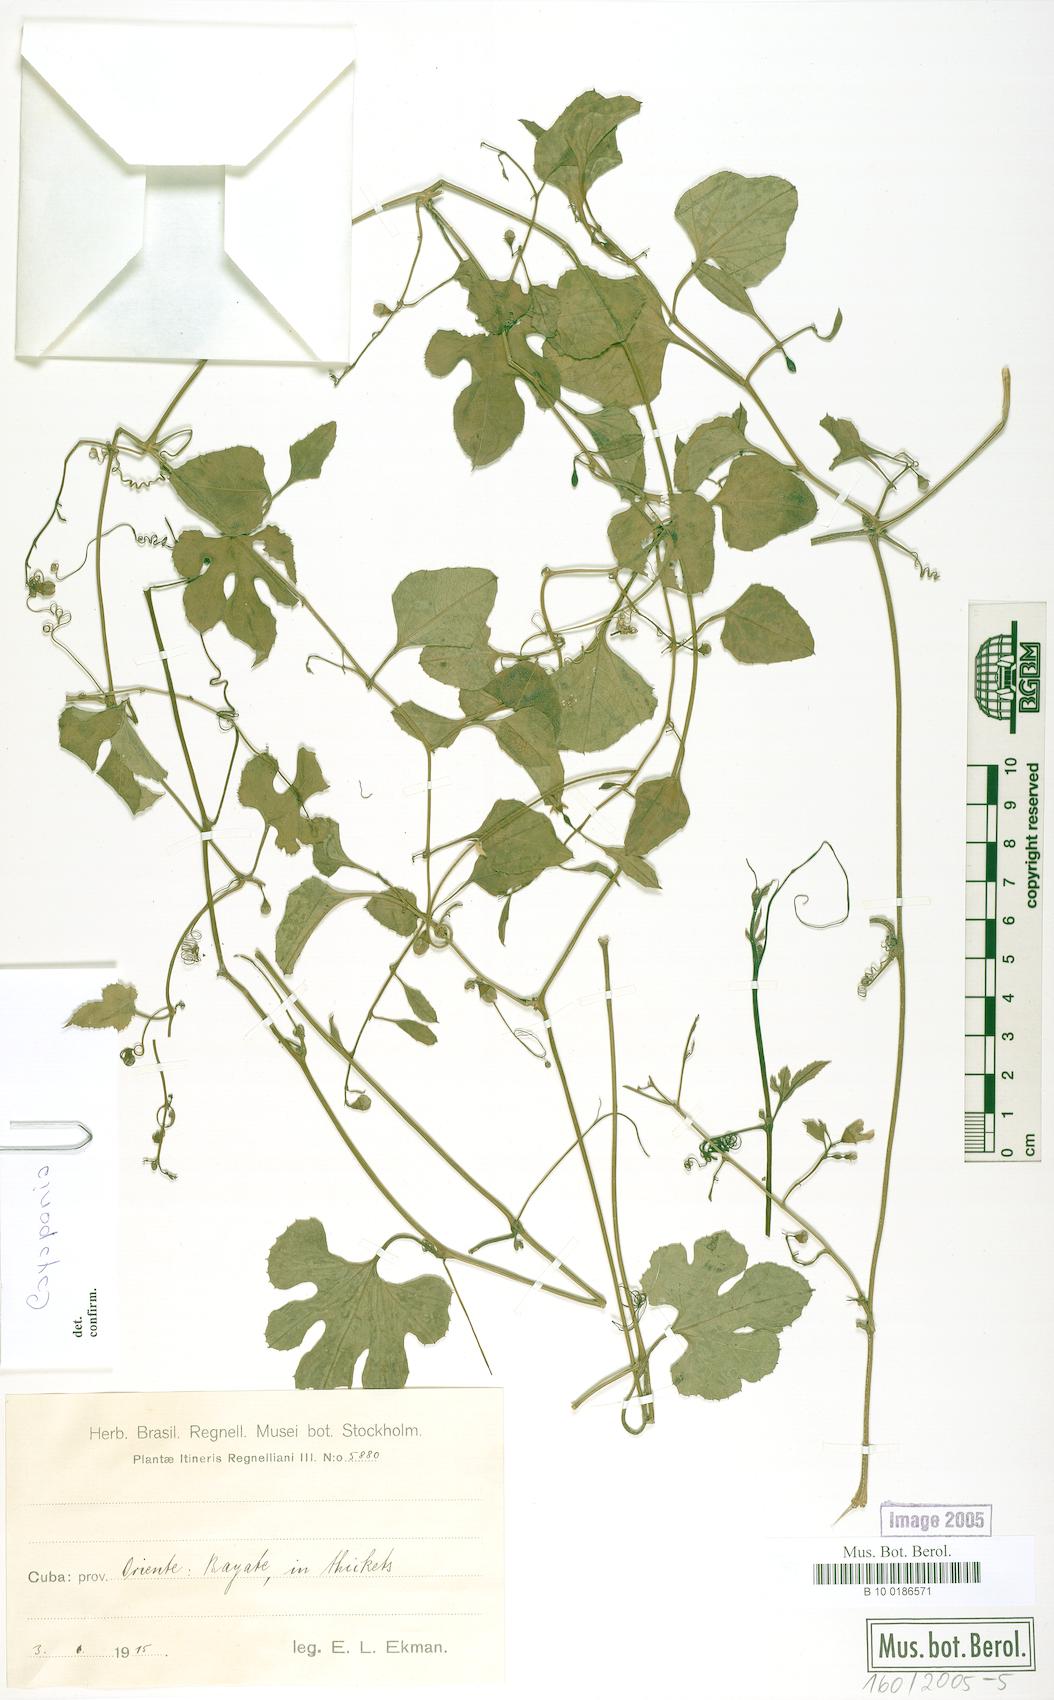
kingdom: Plantae
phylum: Tracheophyta
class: Magnoliopsida
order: Cucurbitales
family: Cucurbitaceae
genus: Cayaponia
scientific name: Cayaponia racemosa
